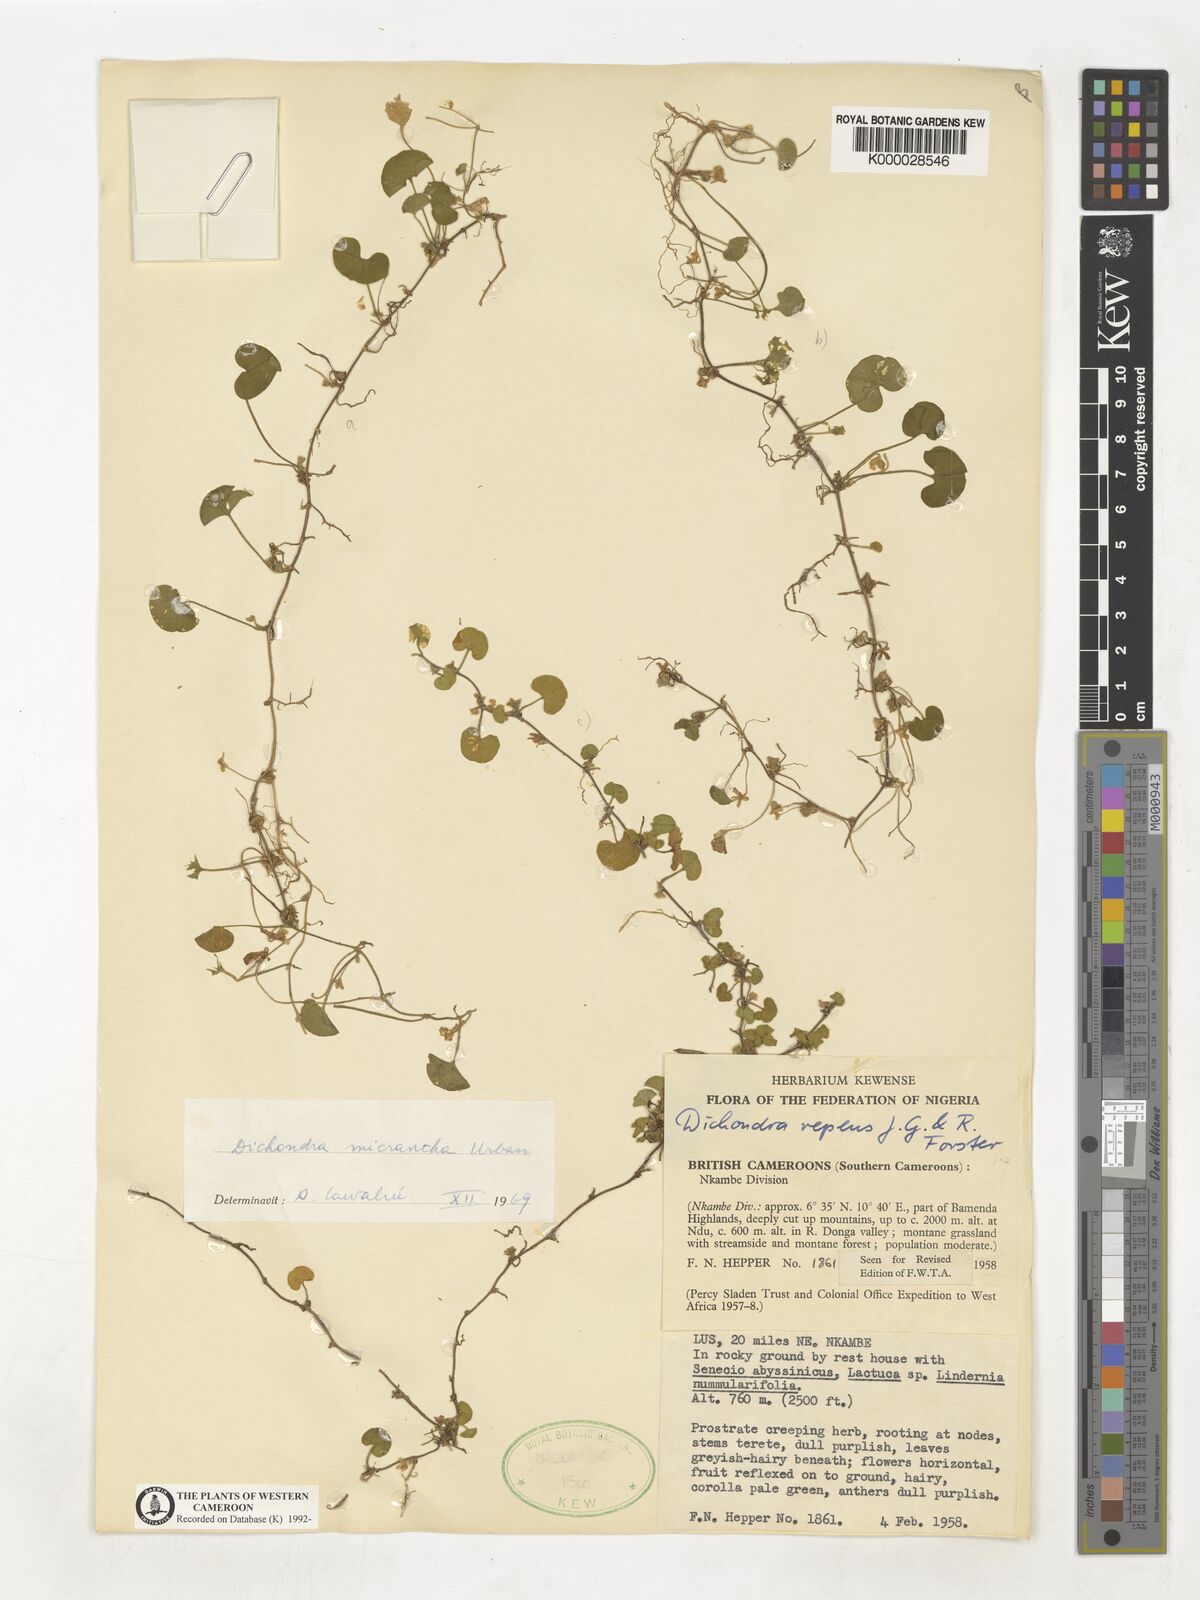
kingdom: Plantae
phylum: Tracheophyta
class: Magnoliopsida
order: Solanales
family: Convolvulaceae
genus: Dichondra
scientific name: Dichondra micrantha
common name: Kidneyweed
